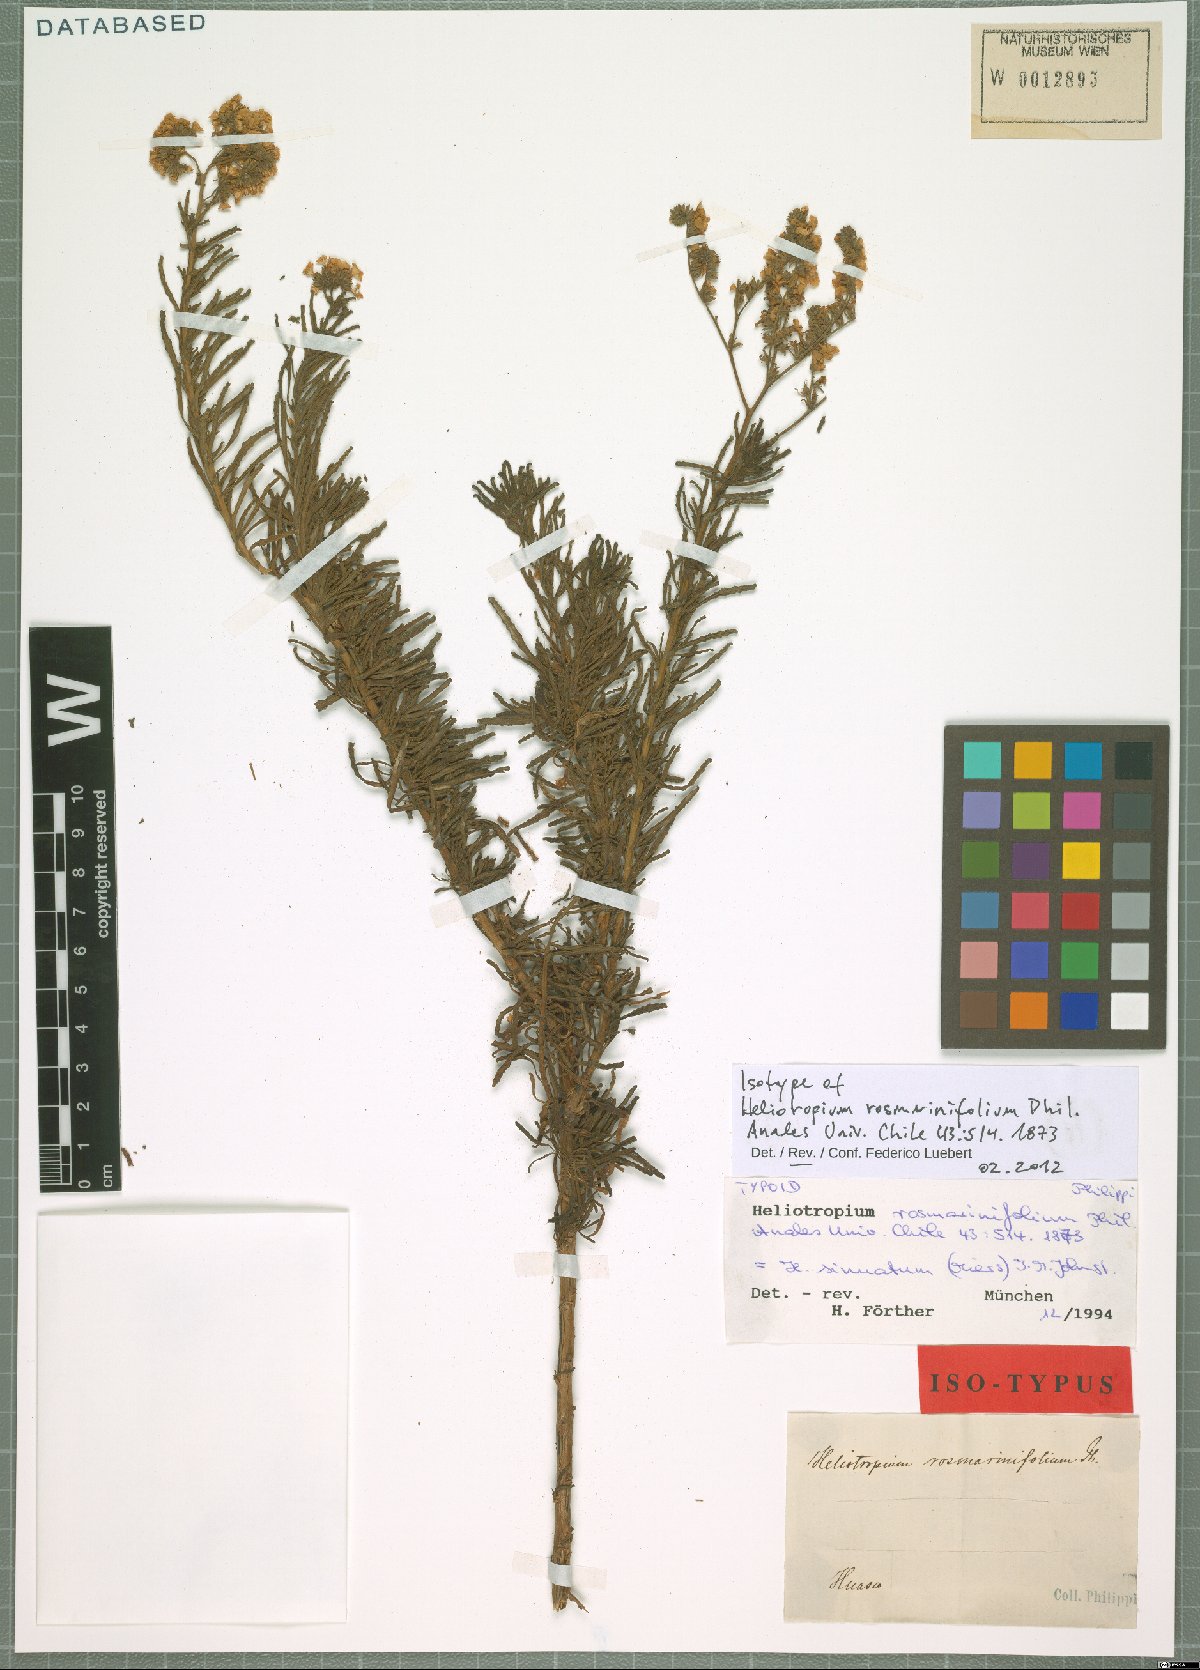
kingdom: Plantae
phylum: Tracheophyta
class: Magnoliopsida
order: Boraginales
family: Heliotropiaceae
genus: Heliotropium
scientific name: Heliotropium sinuatum
